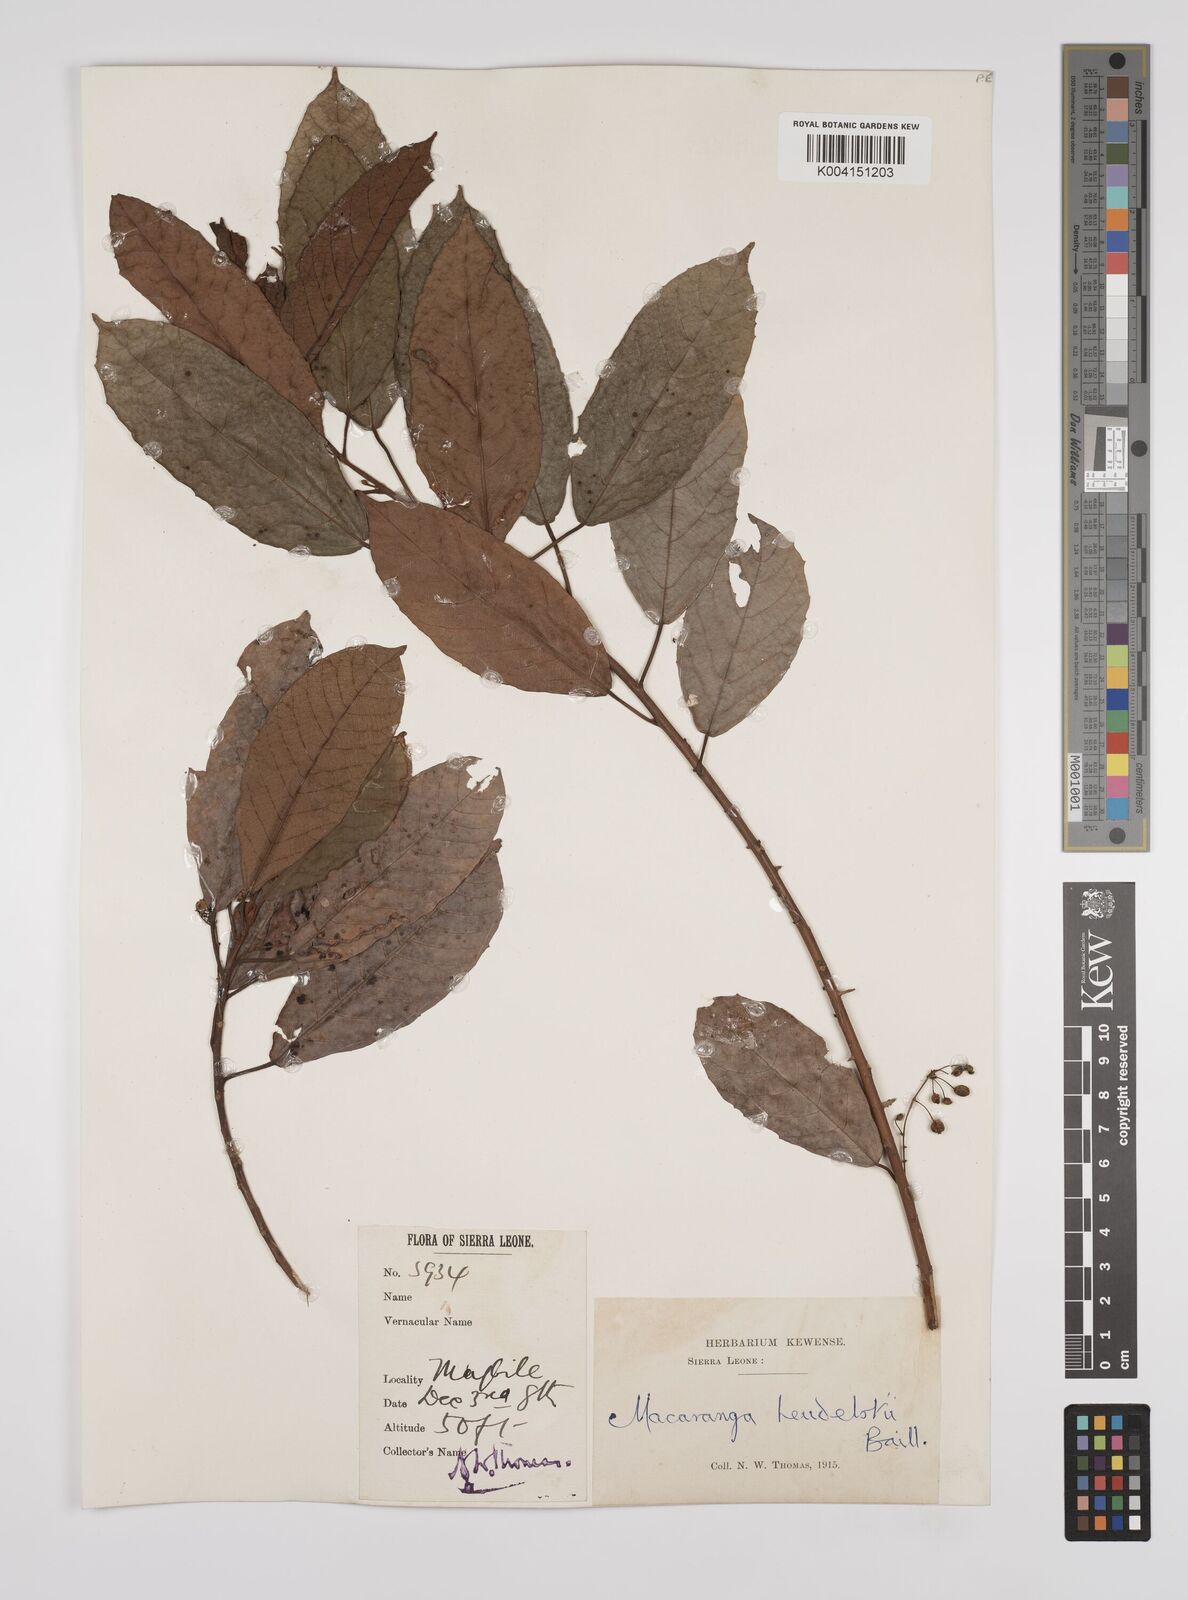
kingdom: Plantae
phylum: Tracheophyta
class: Magnoliopsida
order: Malpighiales
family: Euphorbiaceae
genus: Macaranga
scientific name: Macaranga heudelotii
